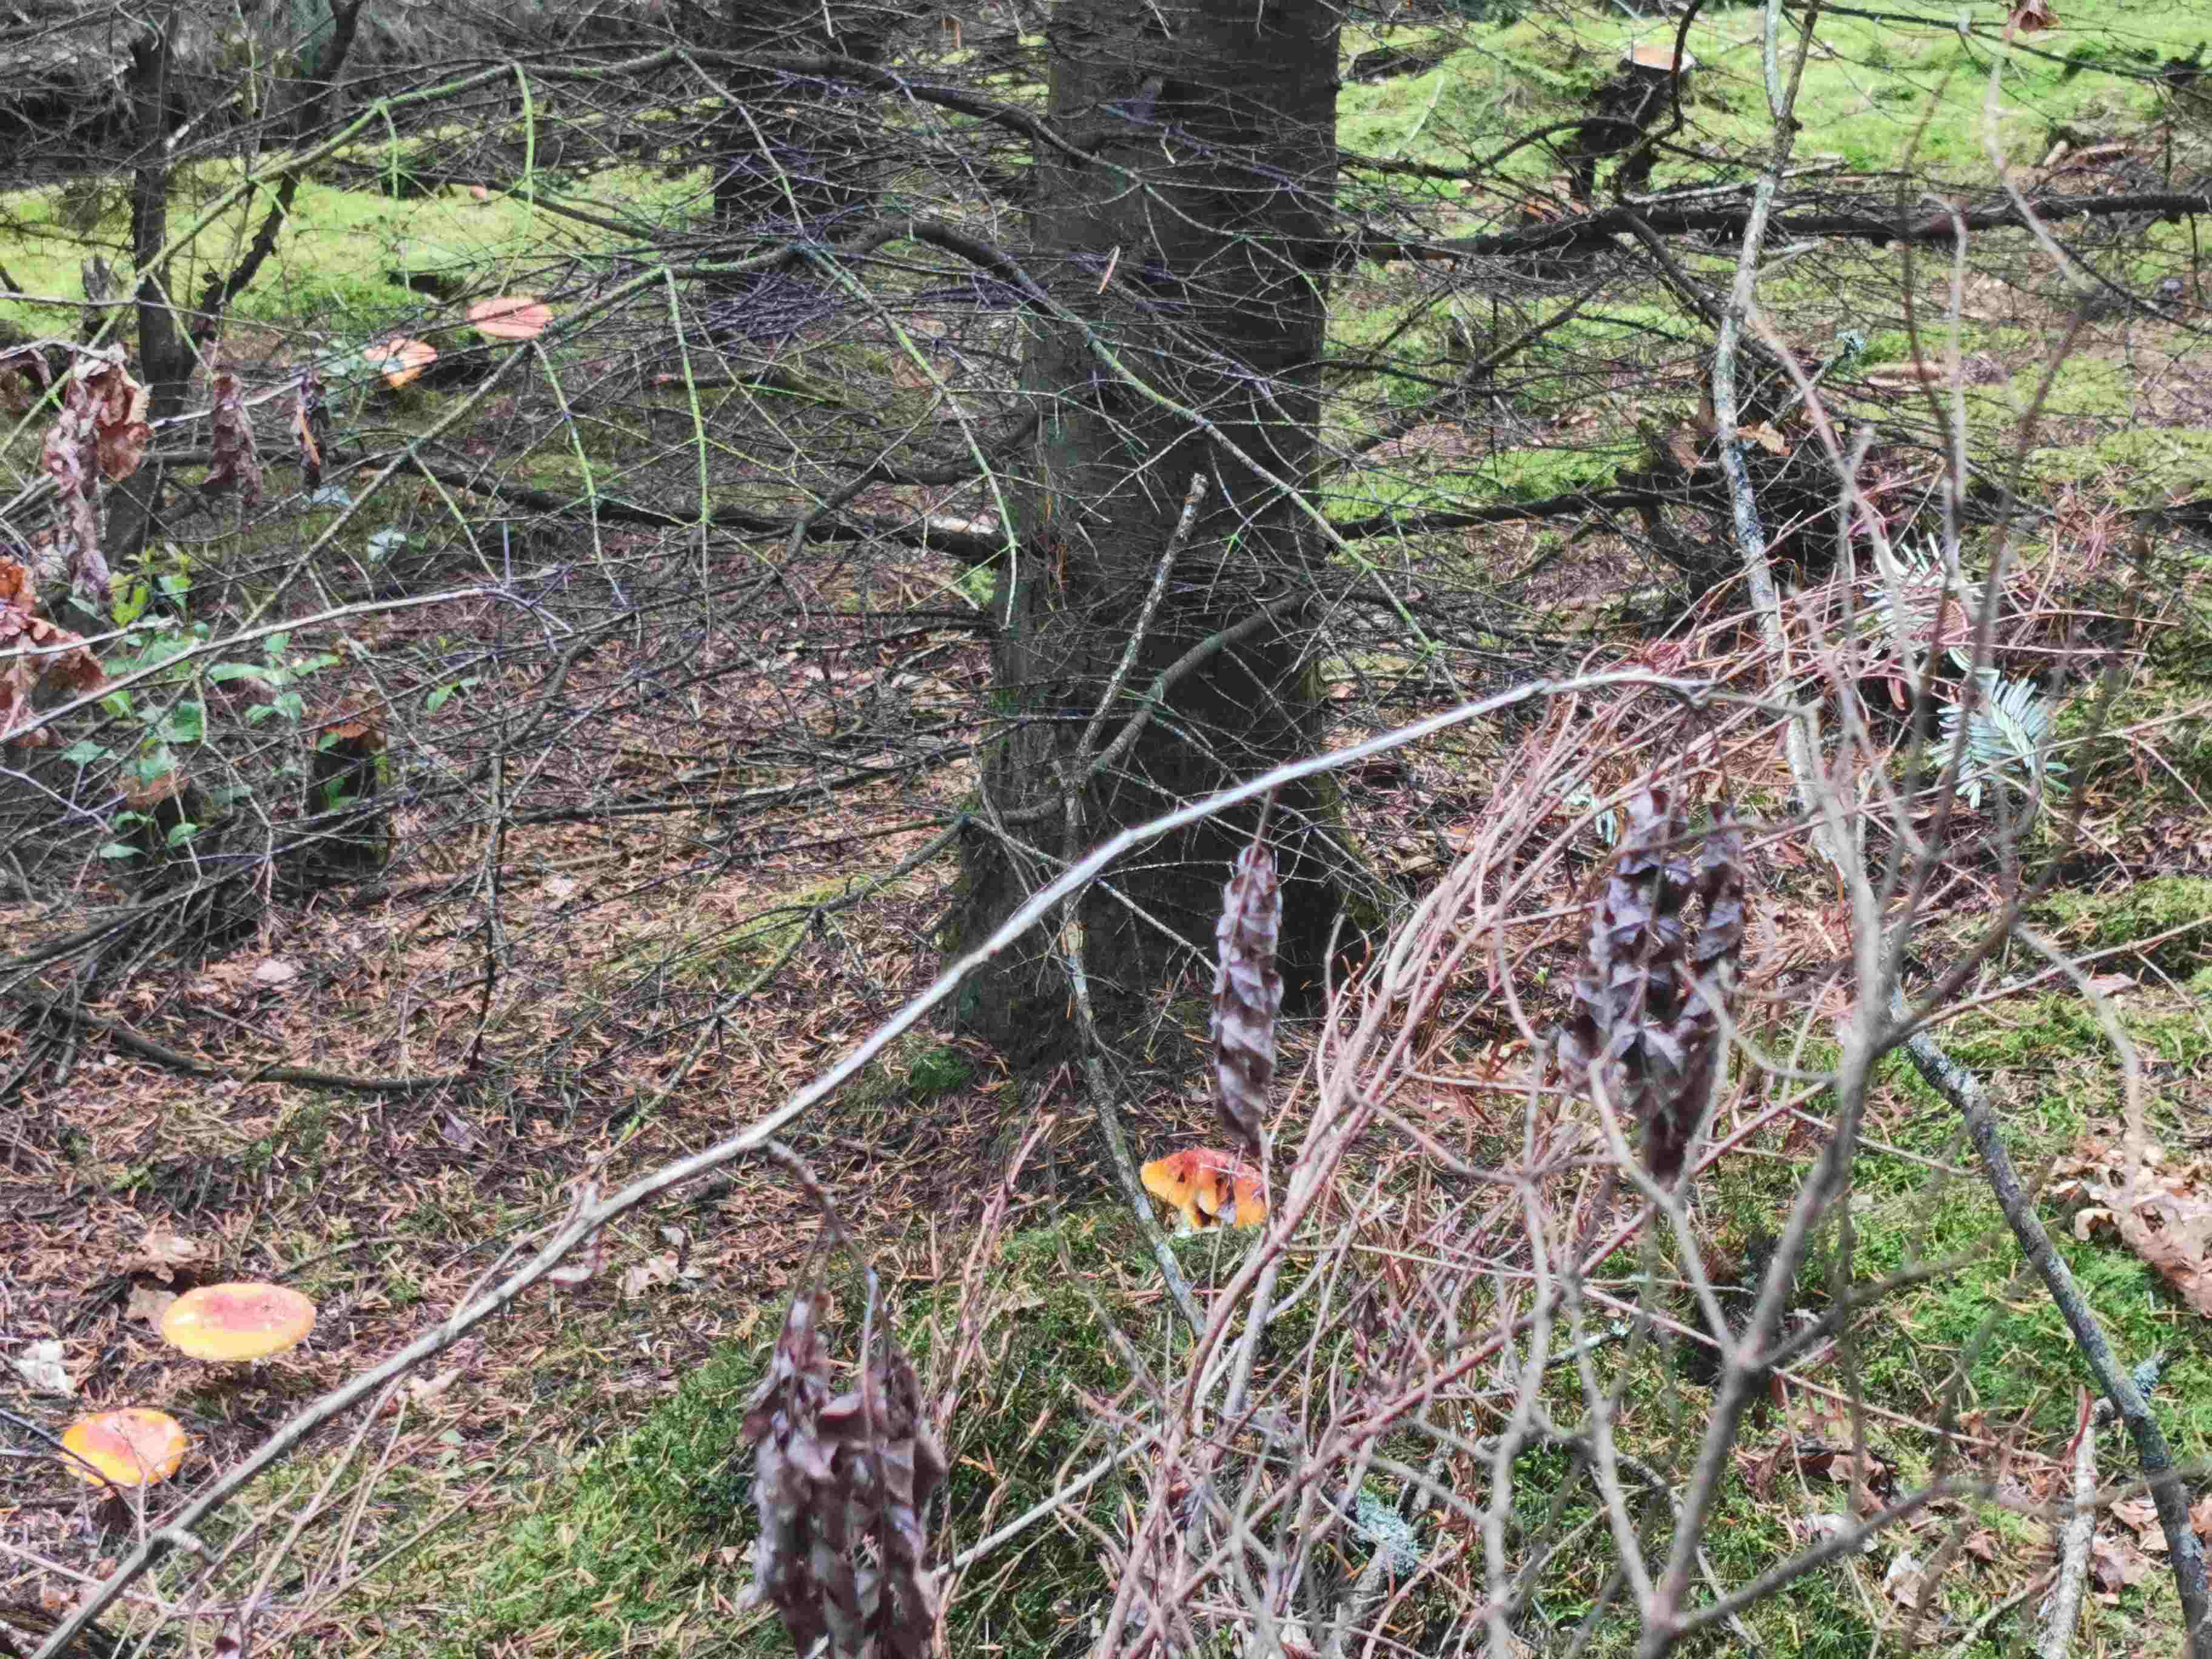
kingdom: Fungi
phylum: Basidiomycota
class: Agaricomycetes
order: Agaricales
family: Amanitaceae
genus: Amanita
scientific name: Amanita muscaria
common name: rød fluesvamp
